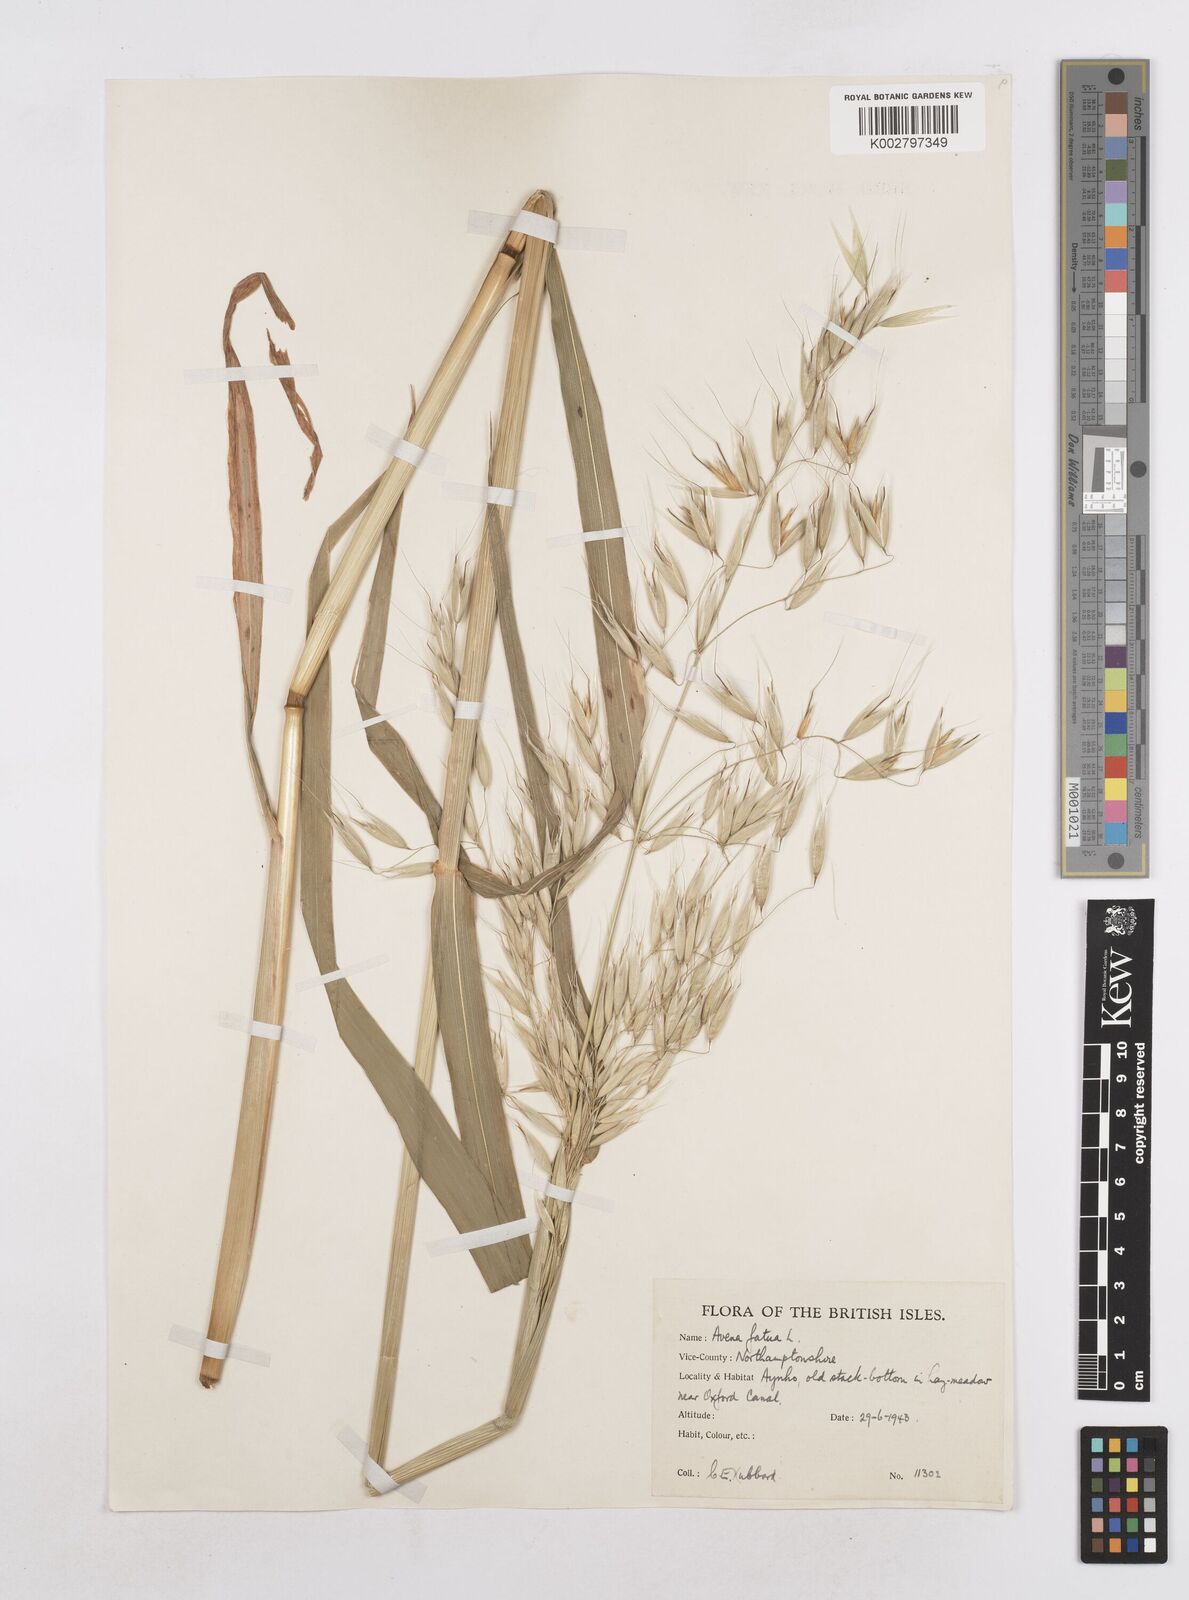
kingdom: Plantae
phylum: Tracheophyta
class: Liliopsida
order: Poales
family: Poaceae
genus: Avena
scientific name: Avena fatua
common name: Wild oat
